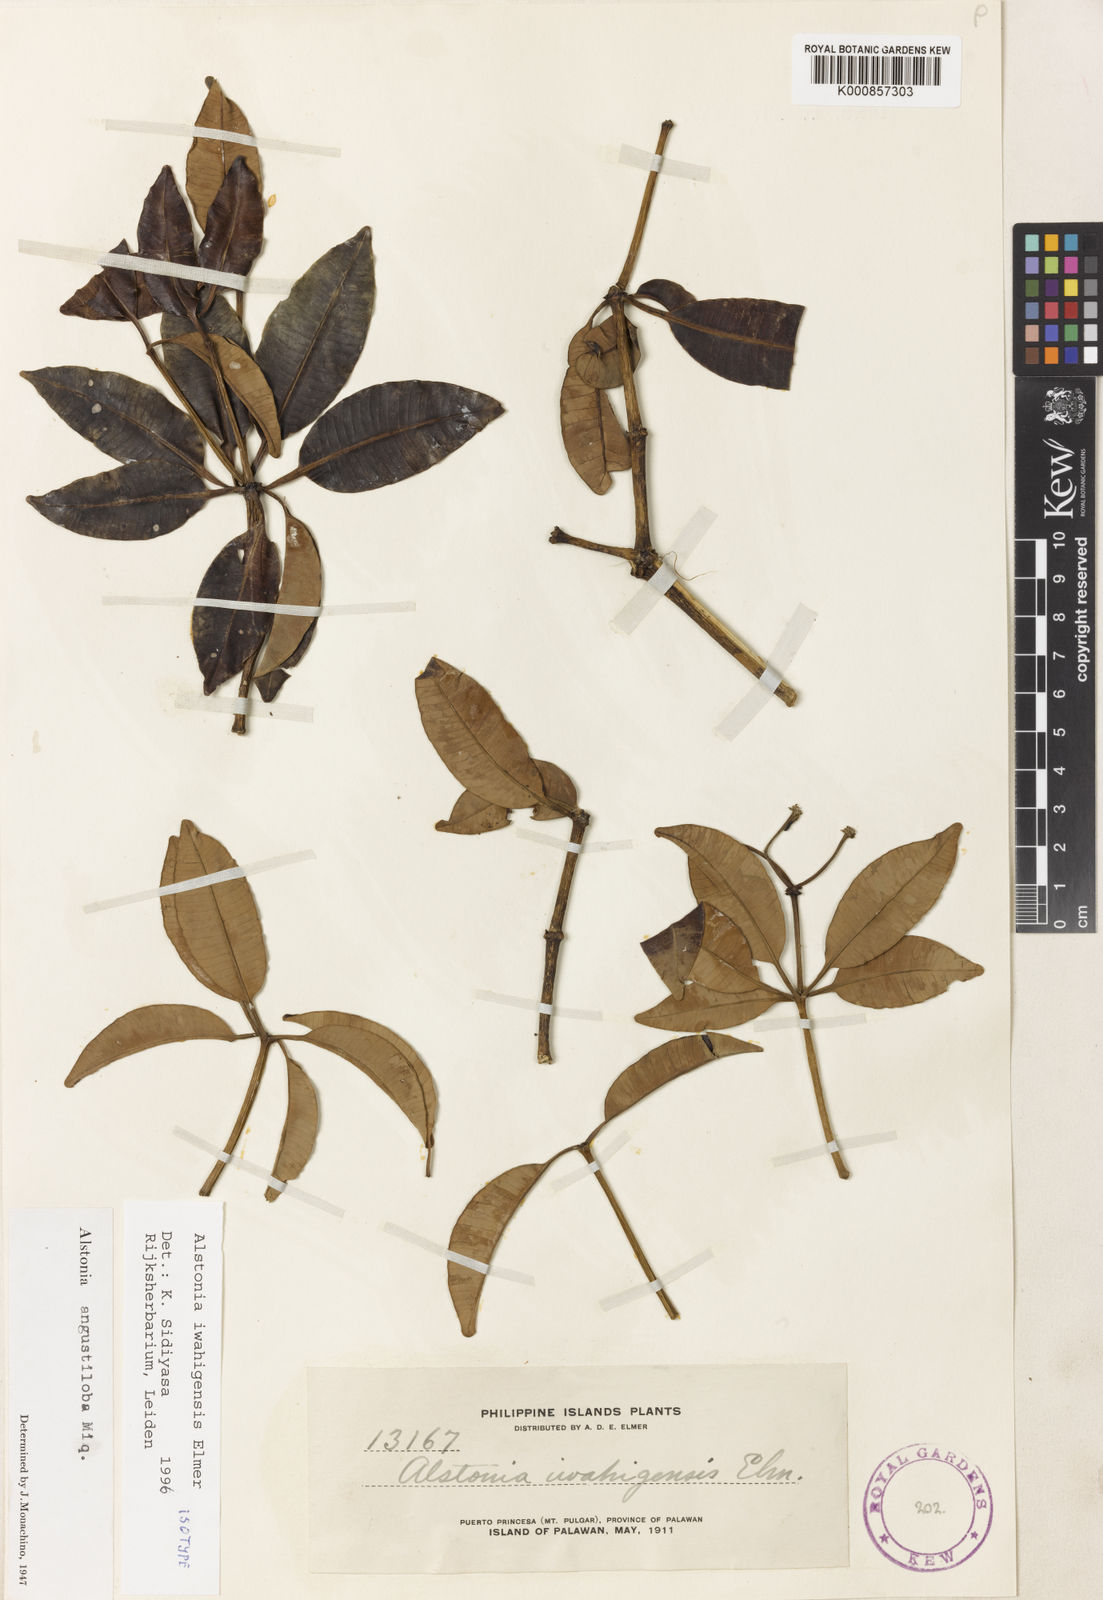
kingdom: Plantae
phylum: Tracheophyta
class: Magnoliopsida
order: Gentianales
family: Apocynaceae
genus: Alstonia
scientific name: Alstonia iwahigensis
